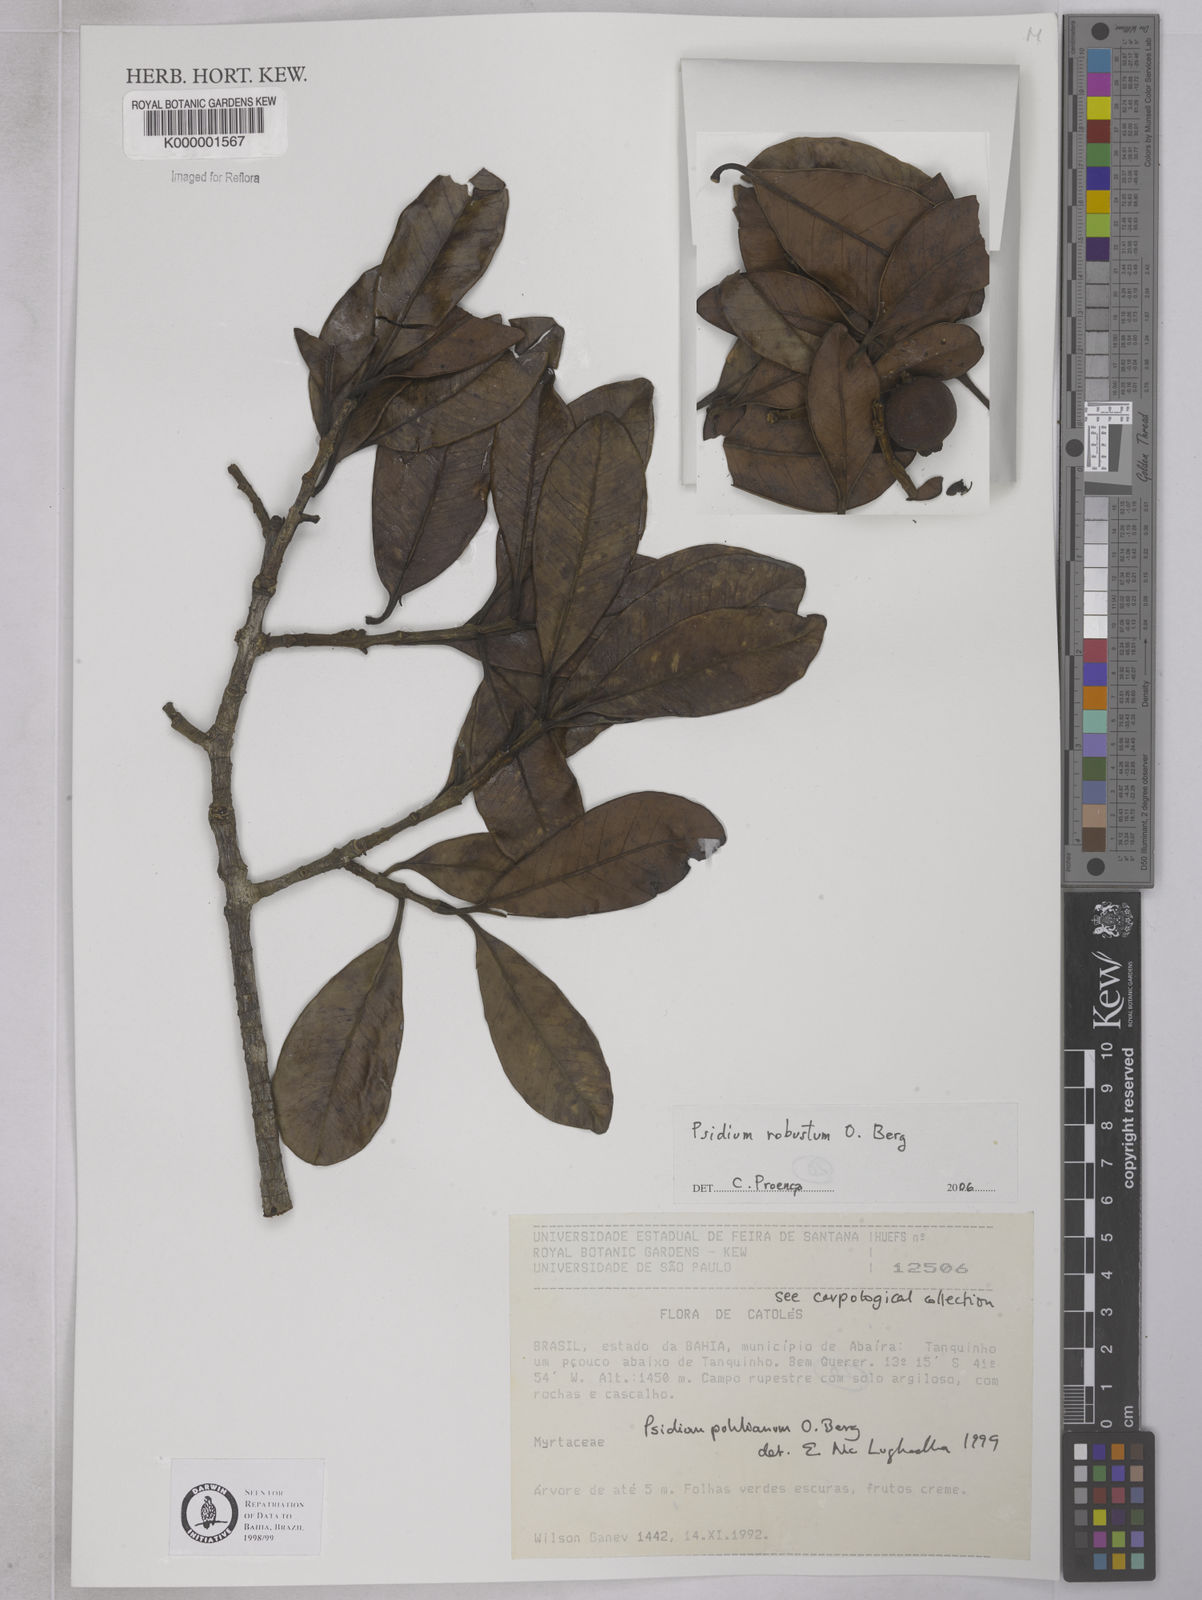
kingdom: Plantae
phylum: Tracheophyta
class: Magnoliopsida
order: Myrtales
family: Myrtaceae
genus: Psidium
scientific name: Psidium salutare
